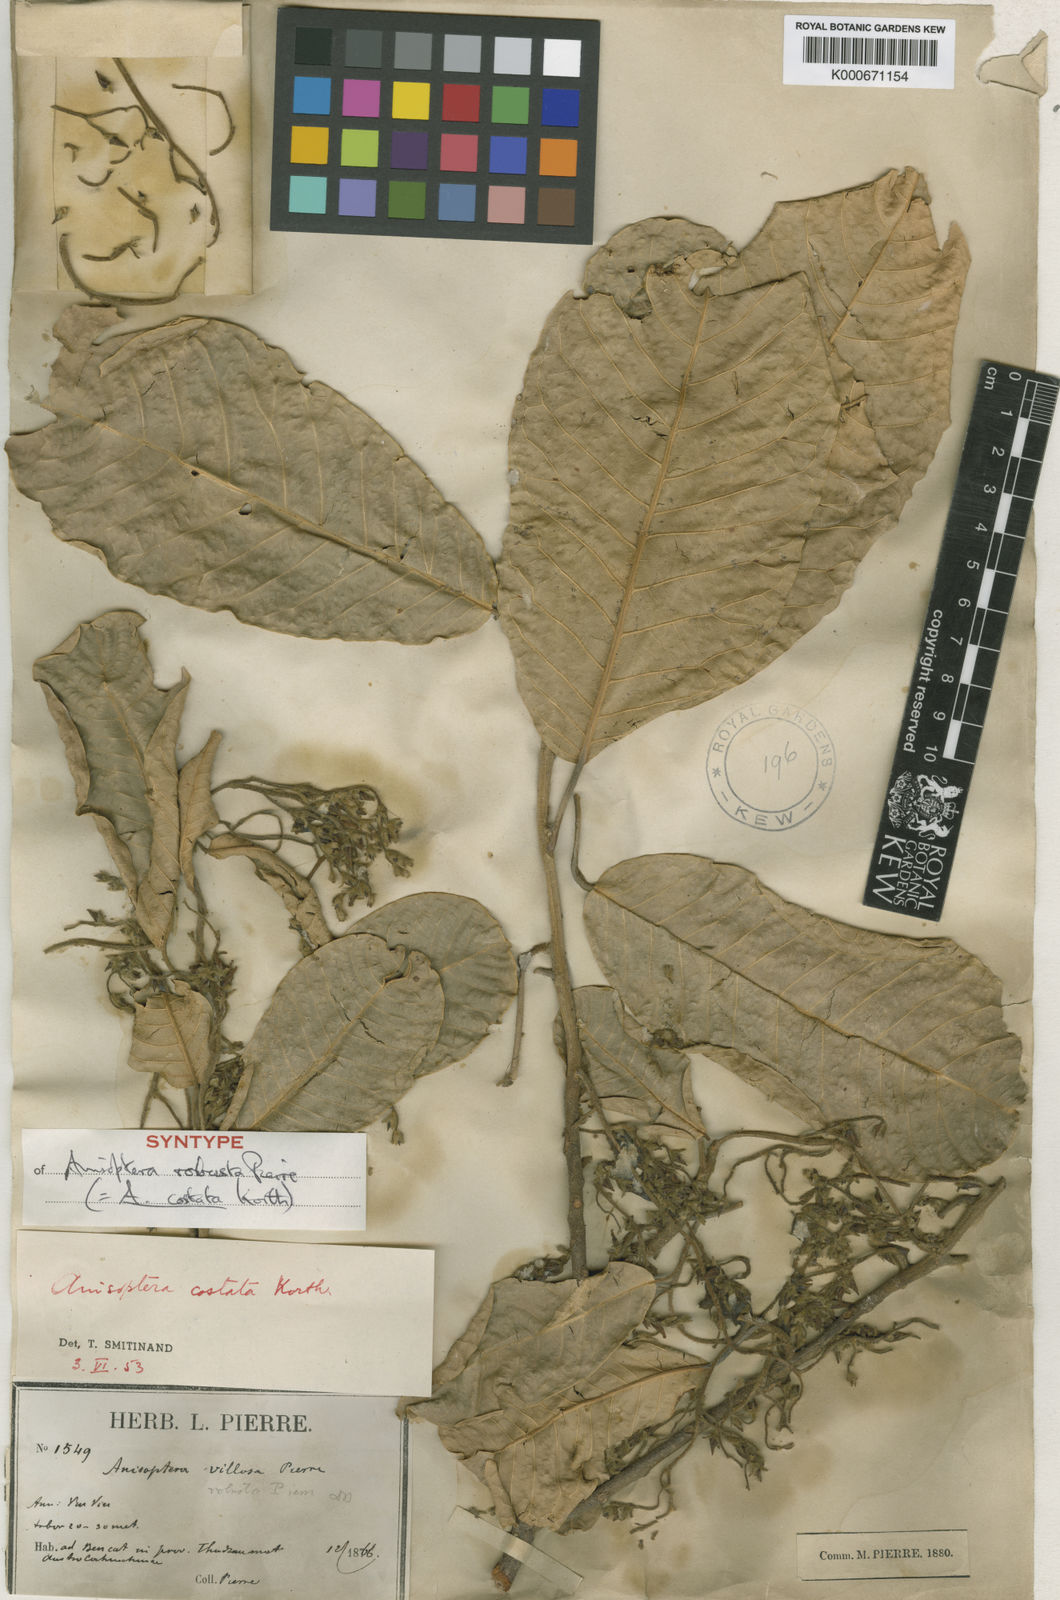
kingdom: Plantae
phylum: Tracheophyta
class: Magnoliopsida
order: Malvales
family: Dipterocarpaceae
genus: Anisoptera
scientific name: Anisoptera costata
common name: Mersawa
